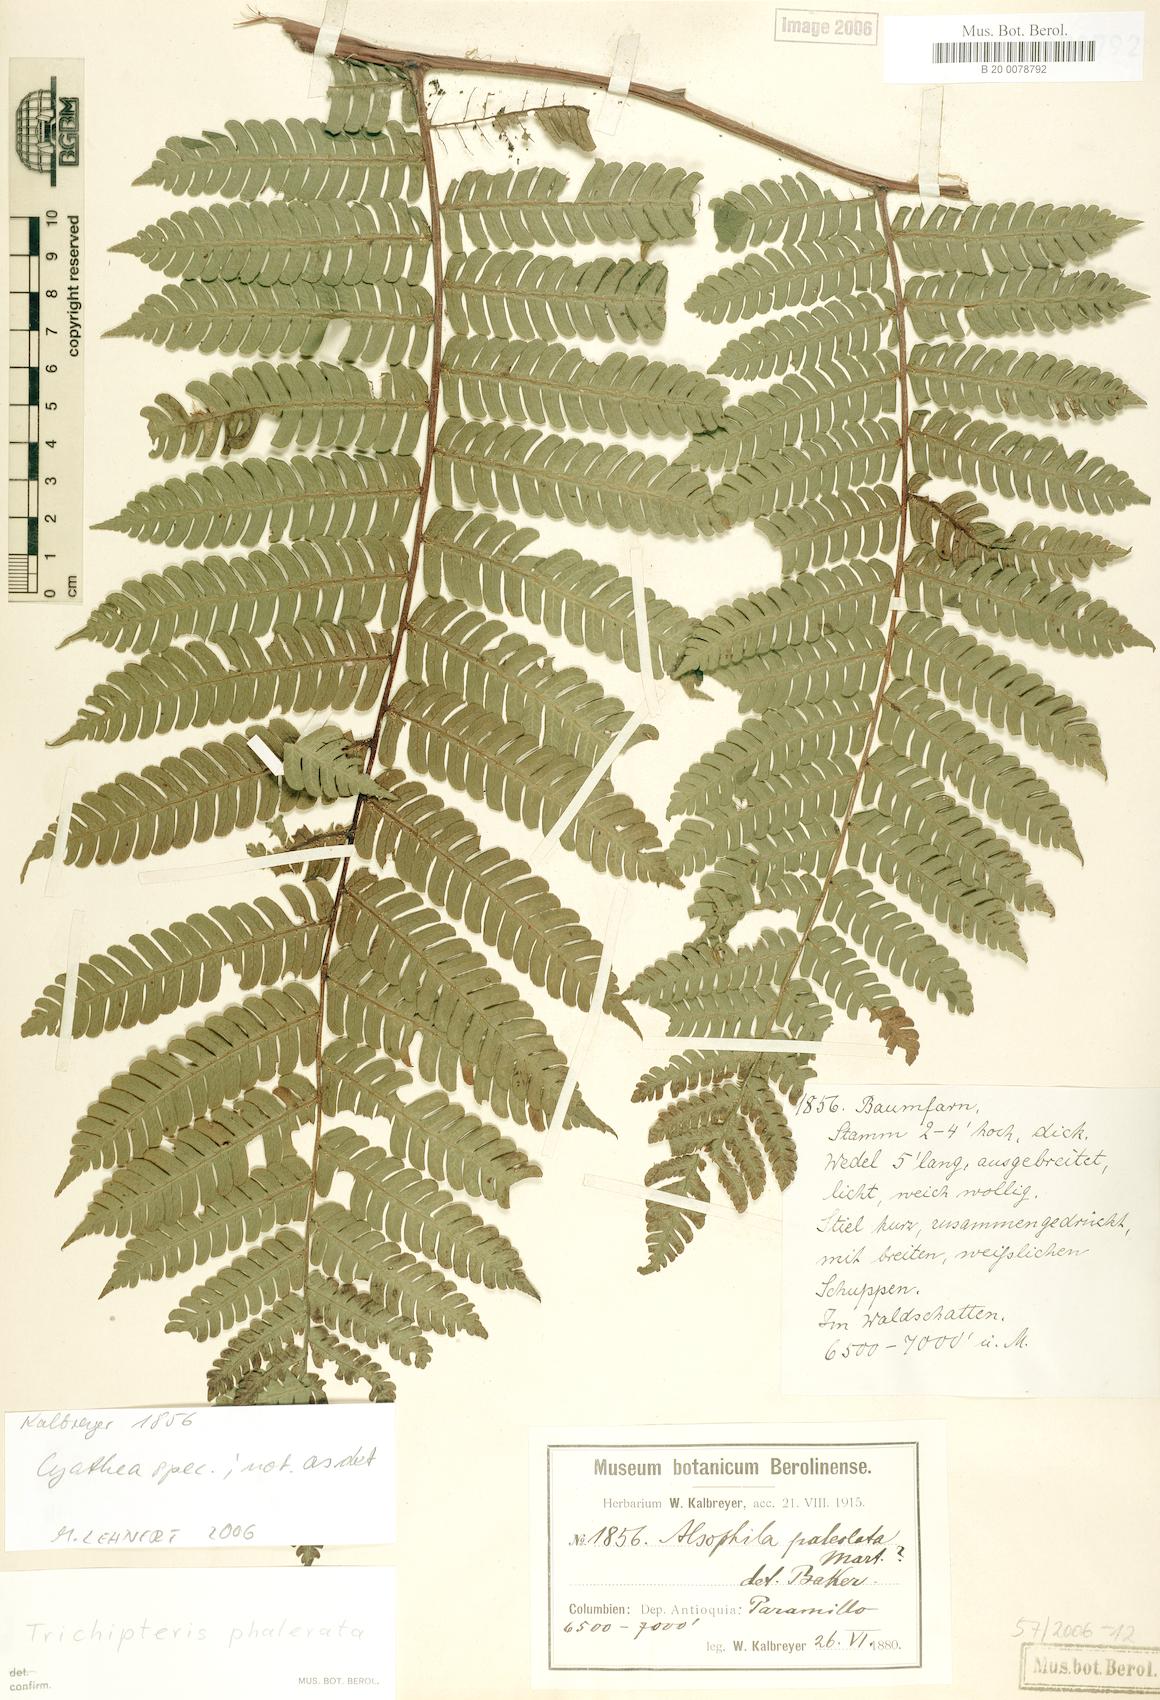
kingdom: Plantae
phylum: Tracheophyta
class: Polypodiopsida
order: Cyatheales
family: Cyatheaceae
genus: Cyathea
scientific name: Cyathea
